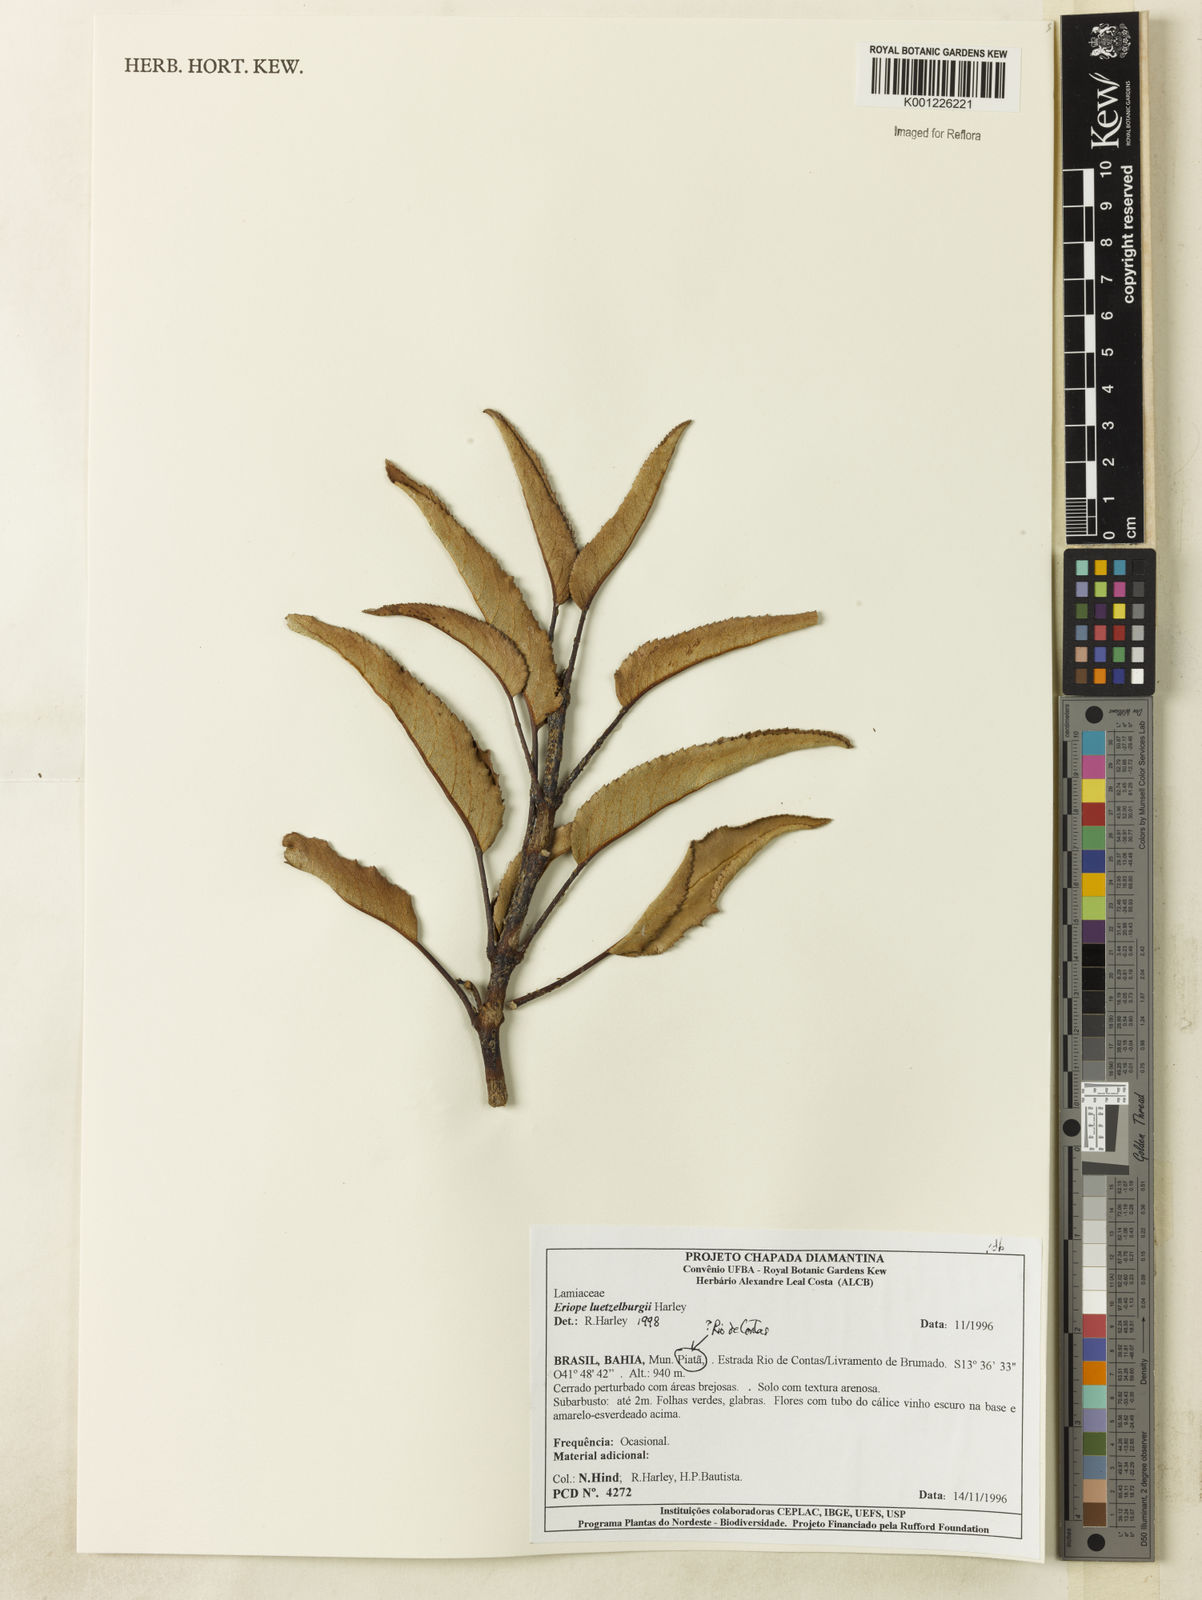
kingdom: Plantae
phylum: Tracheophyta
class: Magnoliopsida
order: Lamiales
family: Lamiaceae
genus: Eriope
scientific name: Eriope luetzelburgii
